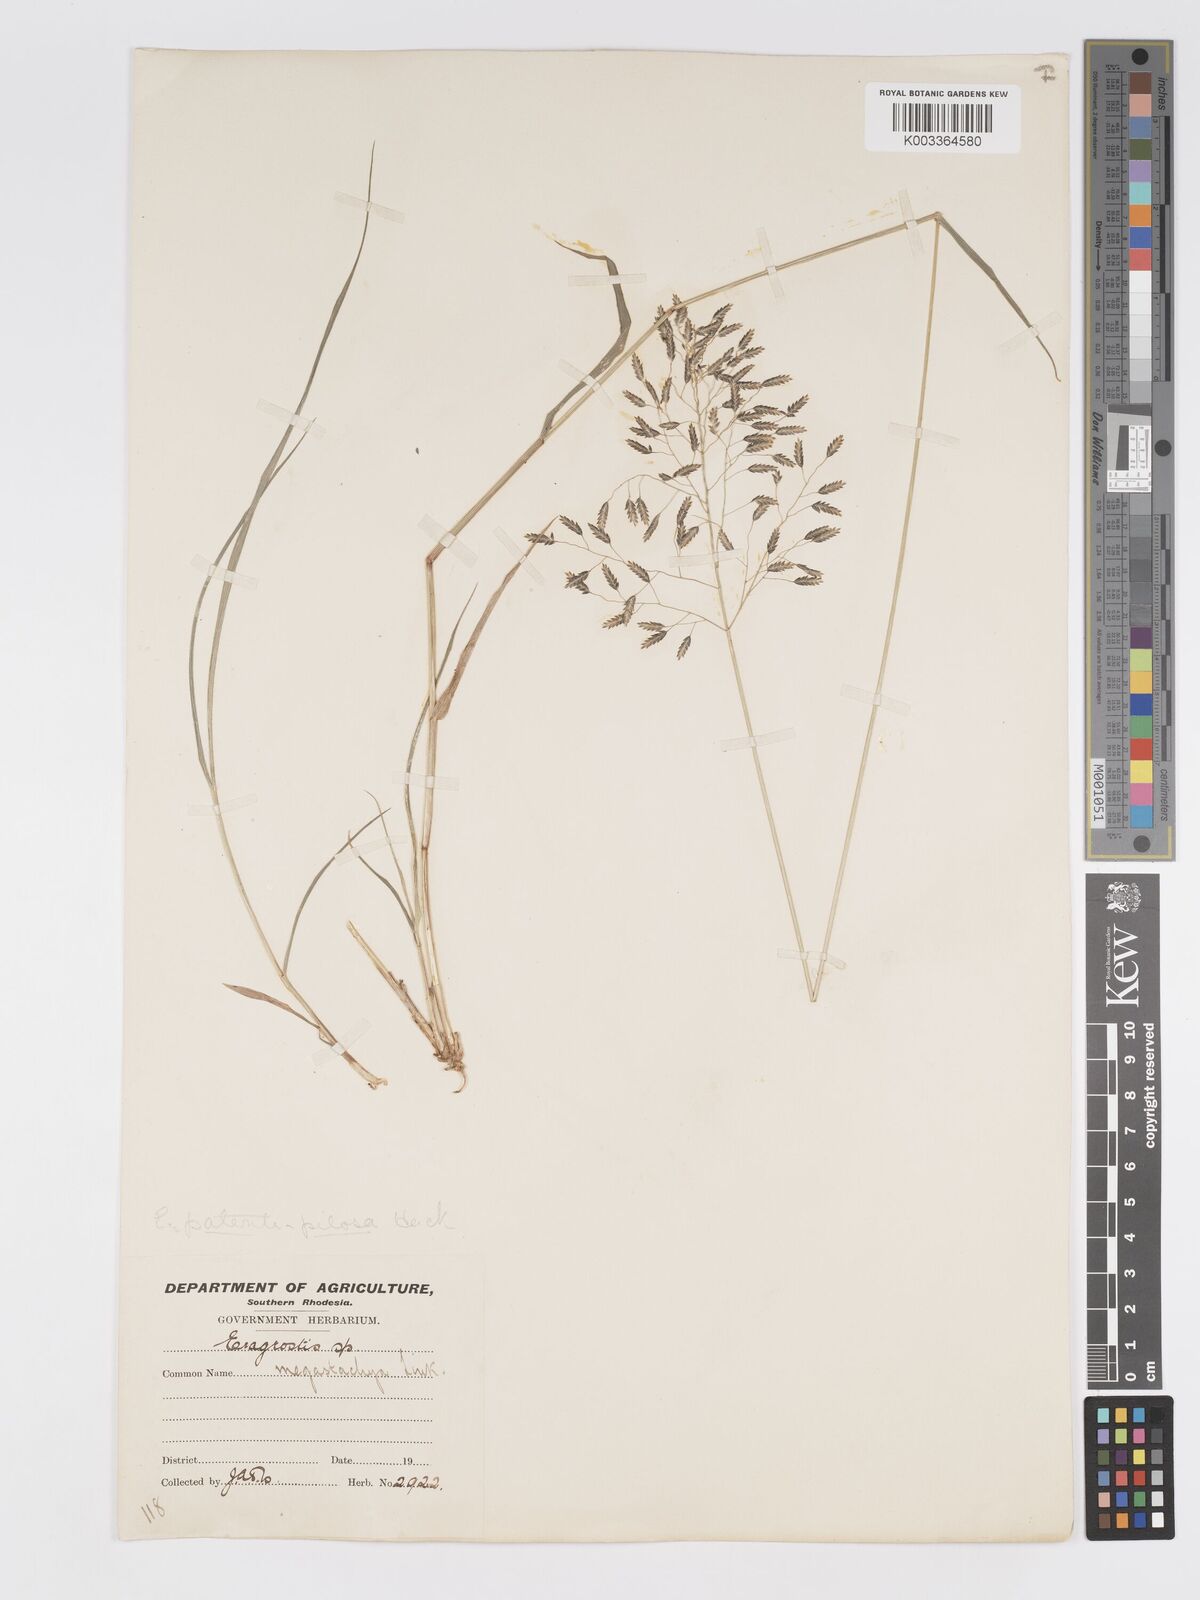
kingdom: Plantae
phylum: Tracheophyta
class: Liliopsida
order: Poales
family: Poaceae
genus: Eragrostis
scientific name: Eragrostis patentipilosa
